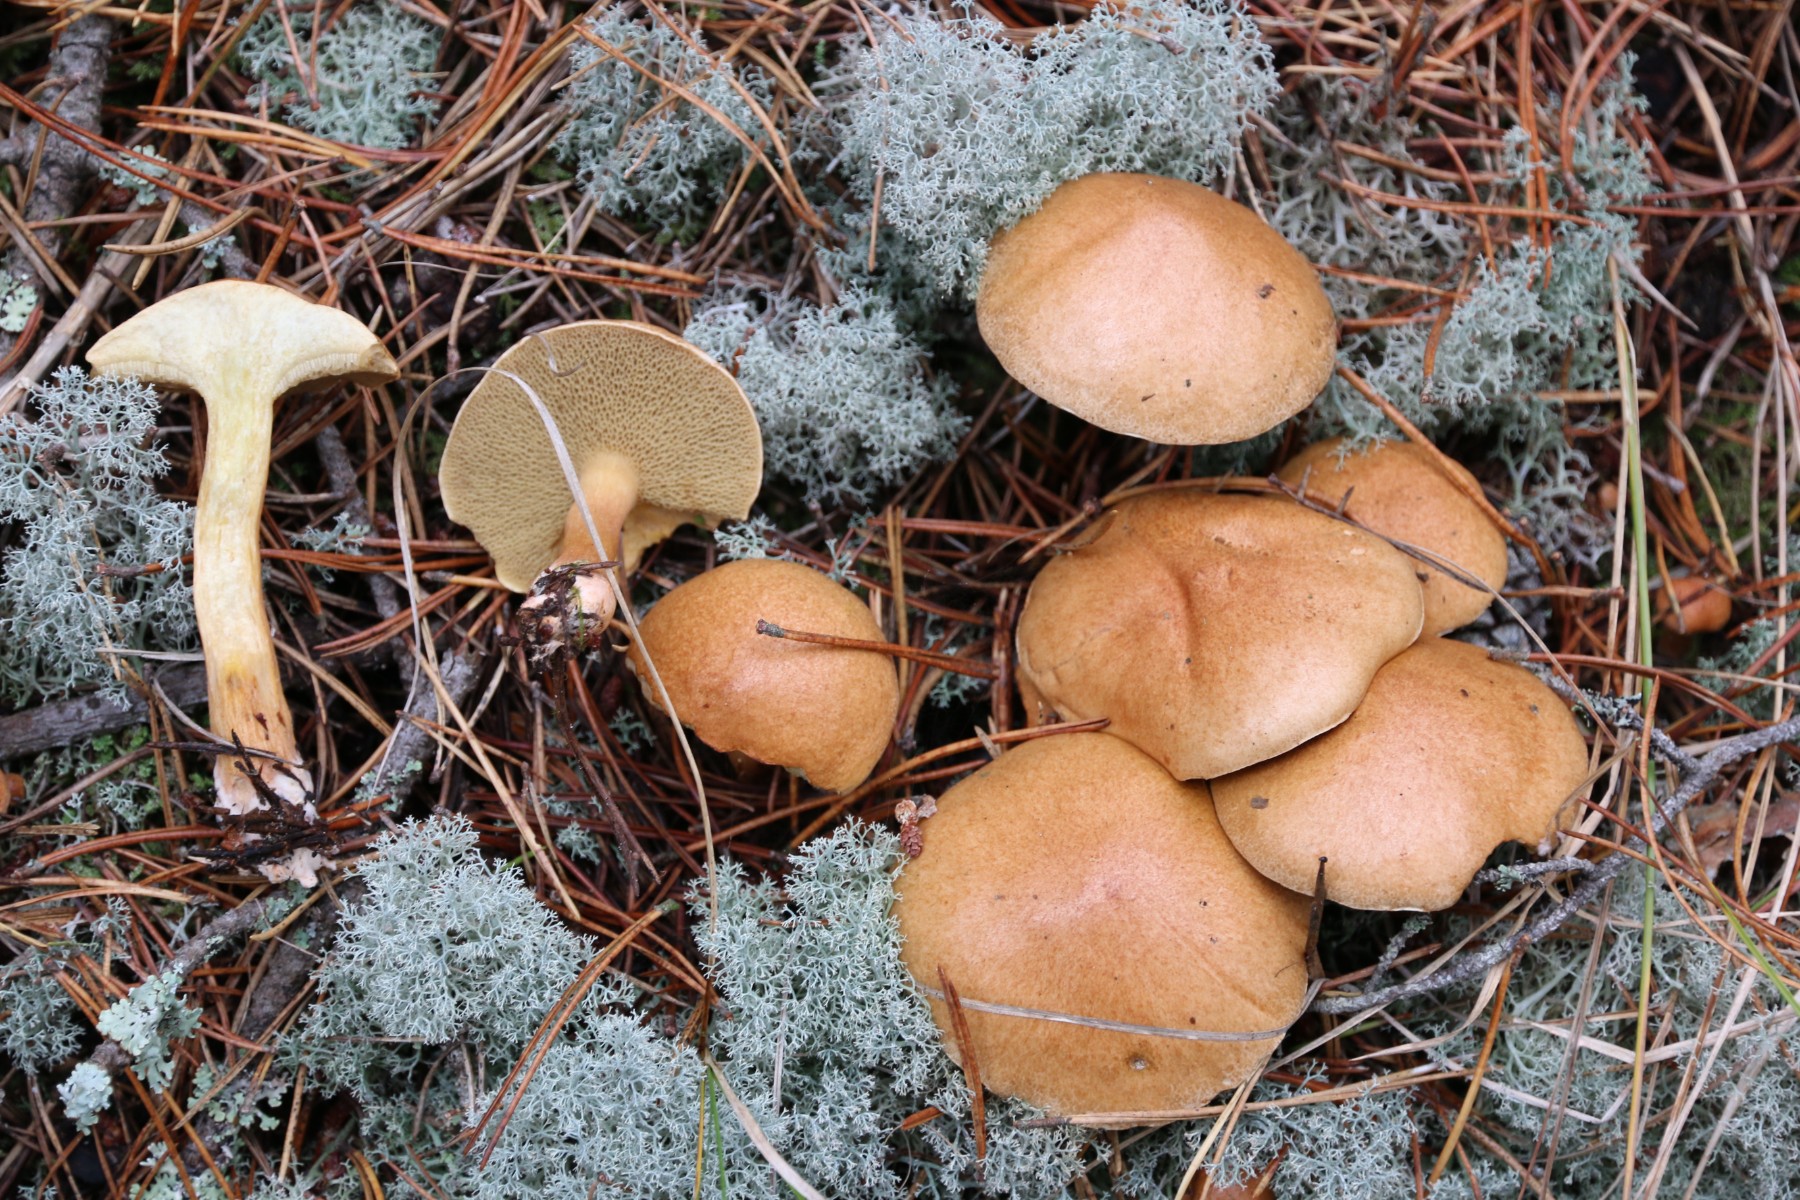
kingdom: Fungi
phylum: Basidiomycota
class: Agaricomycetes
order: Boletales
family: Suillaceae
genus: Suillus
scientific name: Suillus bovinus
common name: grovporet slimrørhat
